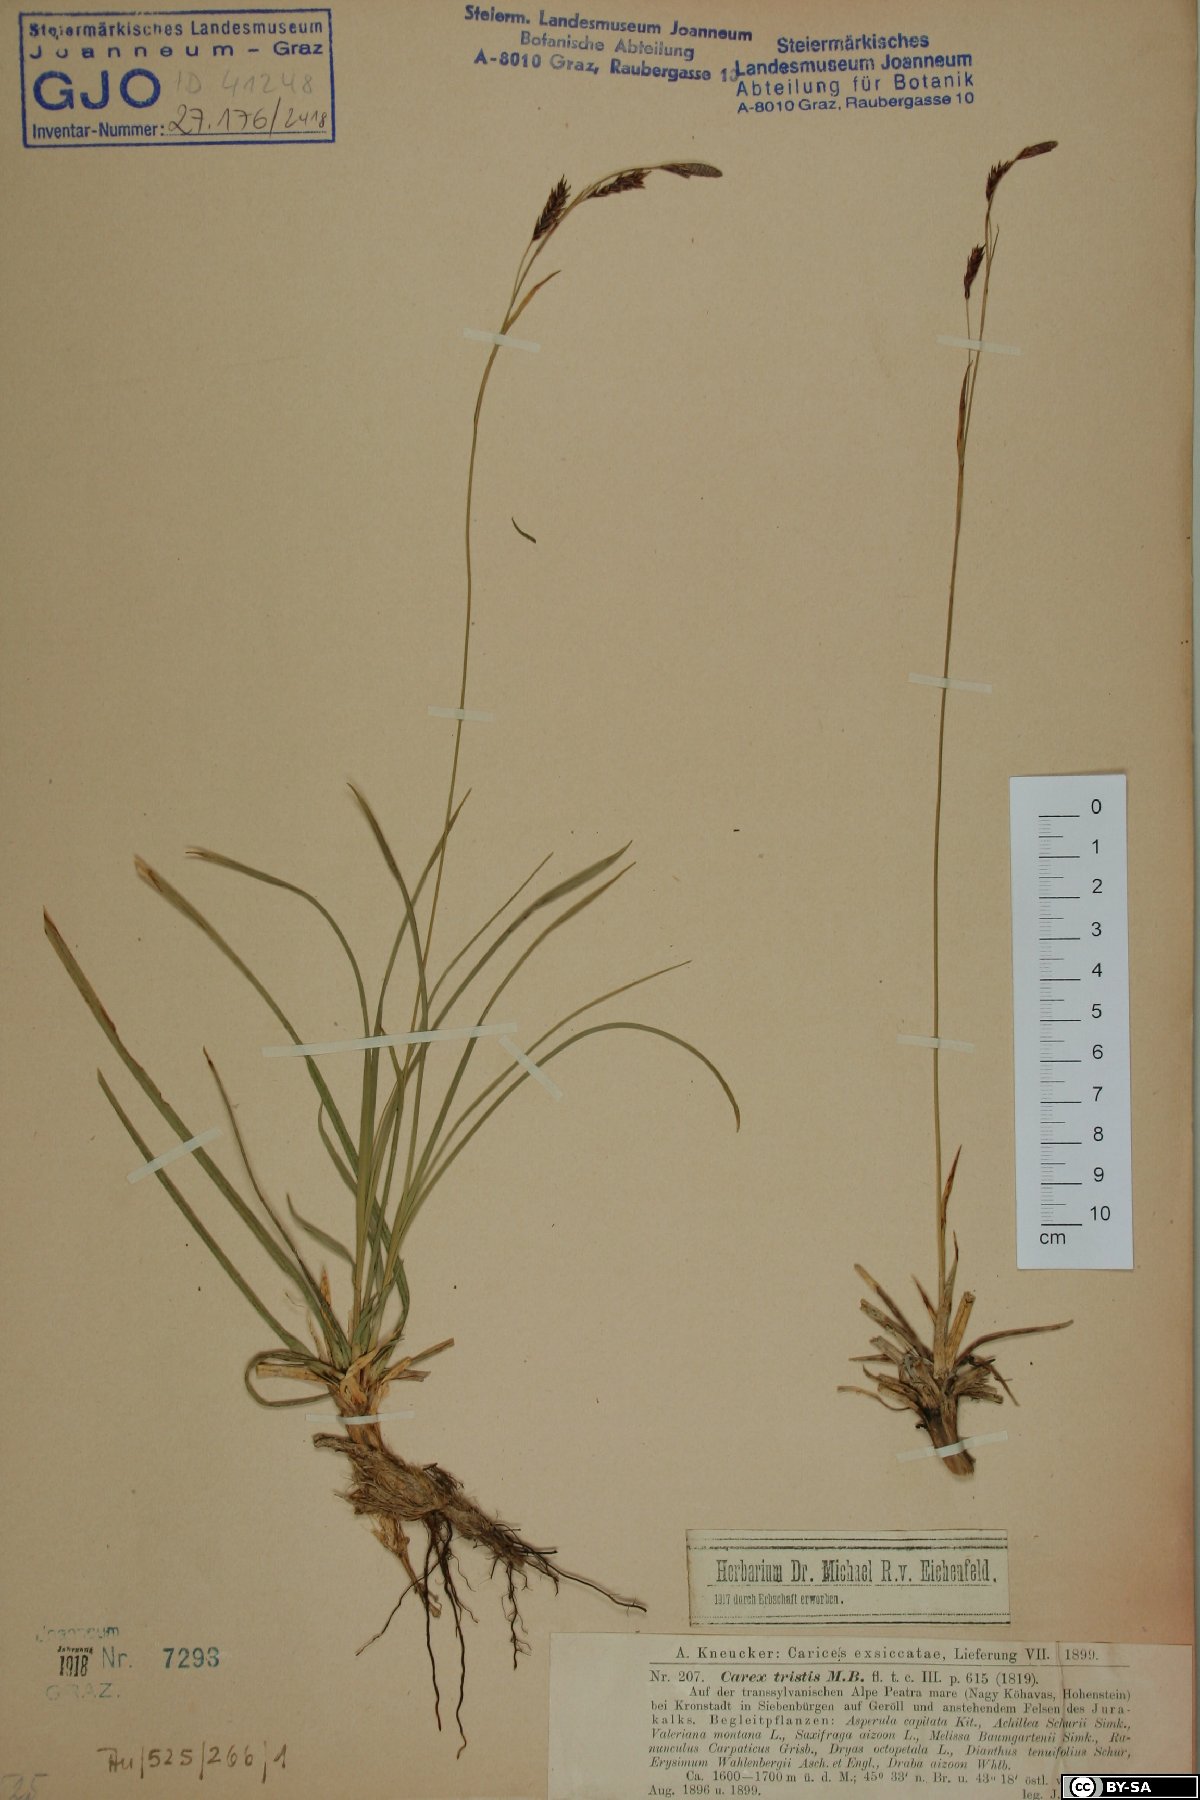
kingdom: Plantae
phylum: Tracheophyta
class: Liliopsida
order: Poales
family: Cyperaceae
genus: Carex
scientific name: Carex tristis
